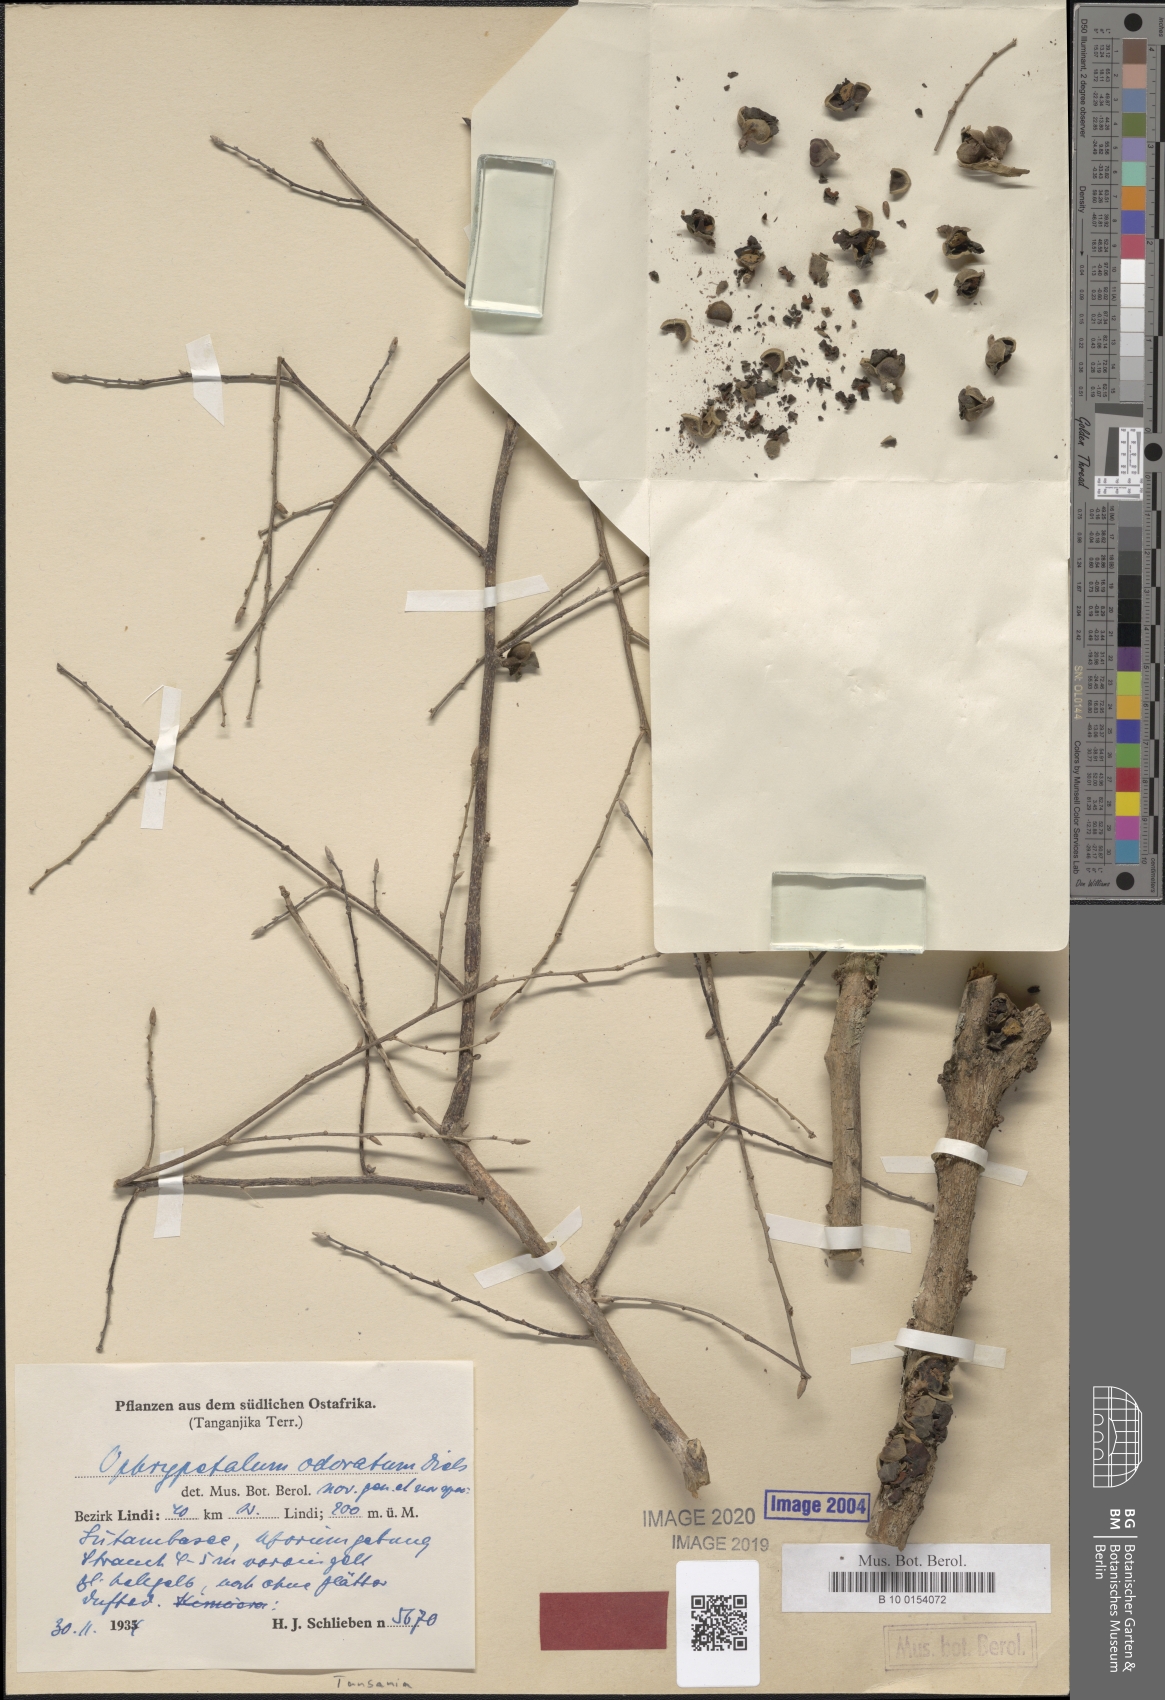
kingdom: Plantae
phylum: Tracheophyta
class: Magnoliopsida
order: Magnoliales
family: Annonaceae
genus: Ophrypetalum
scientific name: Ophrypetalum odoratum
